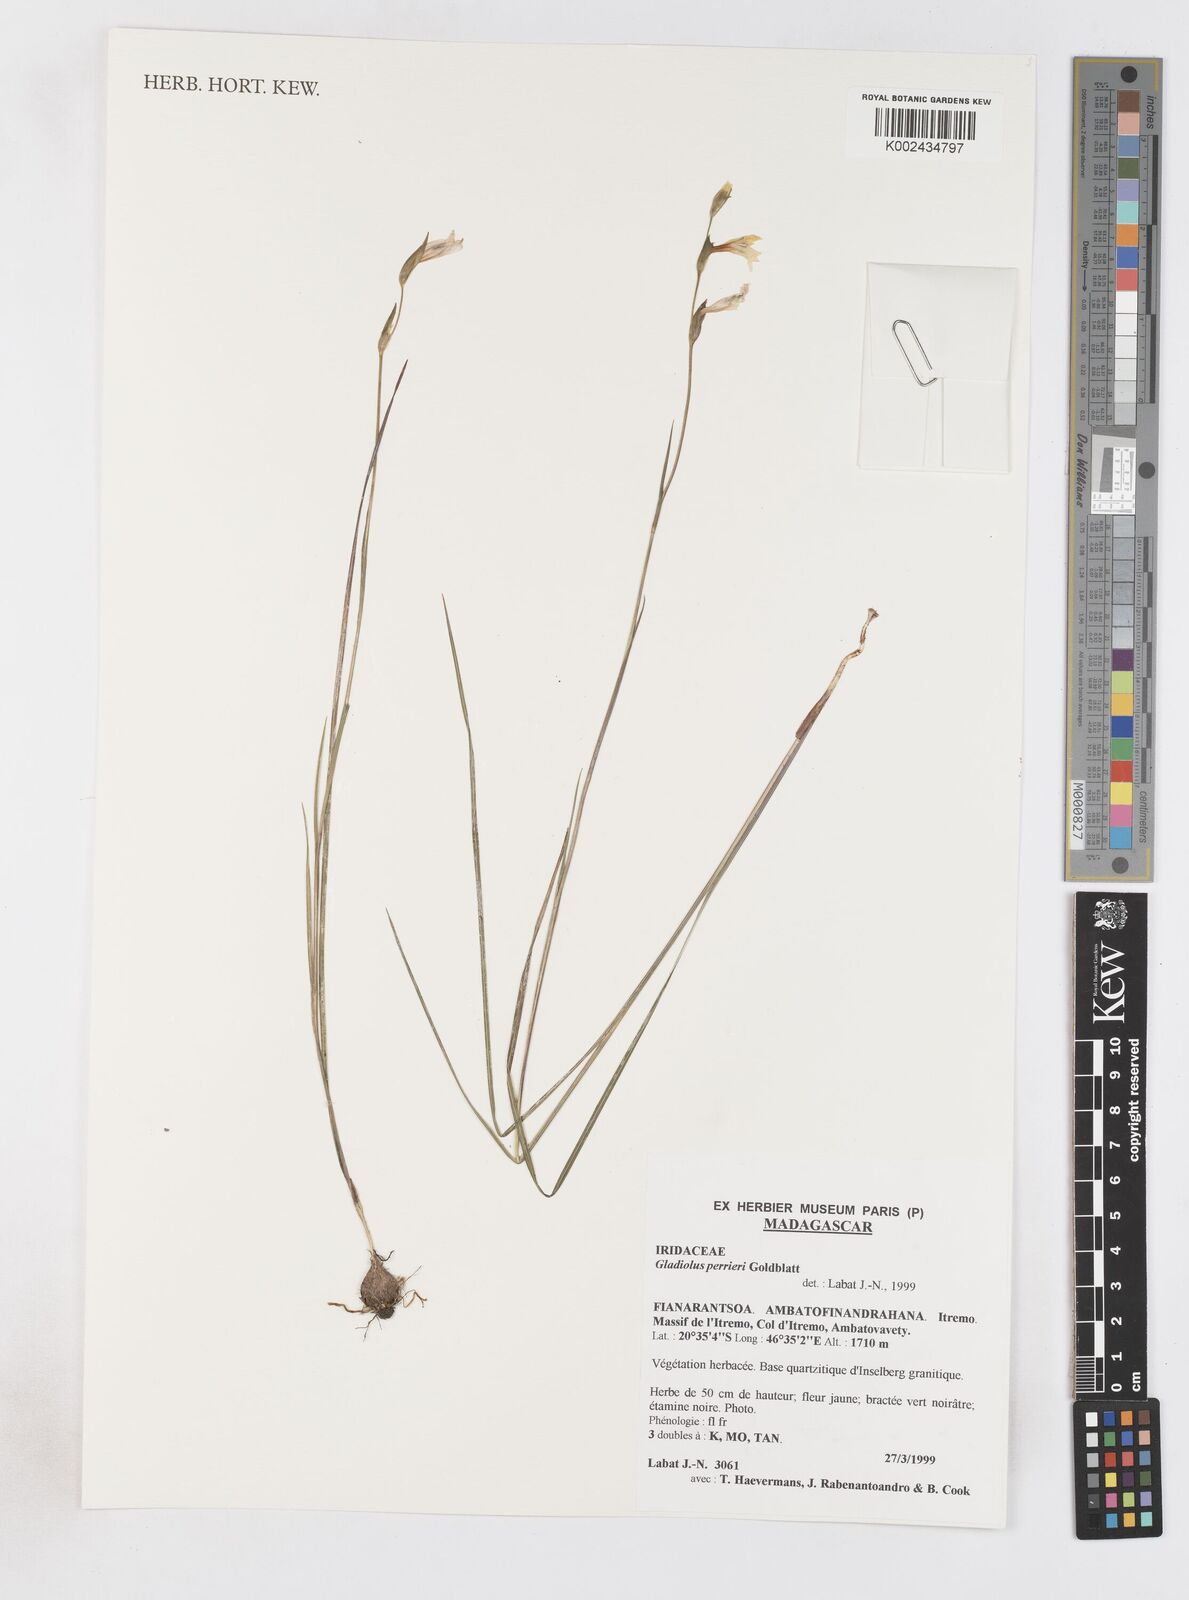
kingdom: Plantae
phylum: Tracheophyta
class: Liliopsida
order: Asparagales
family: Iridaceae
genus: Gladiolus
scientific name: Gladiolus perrieri
